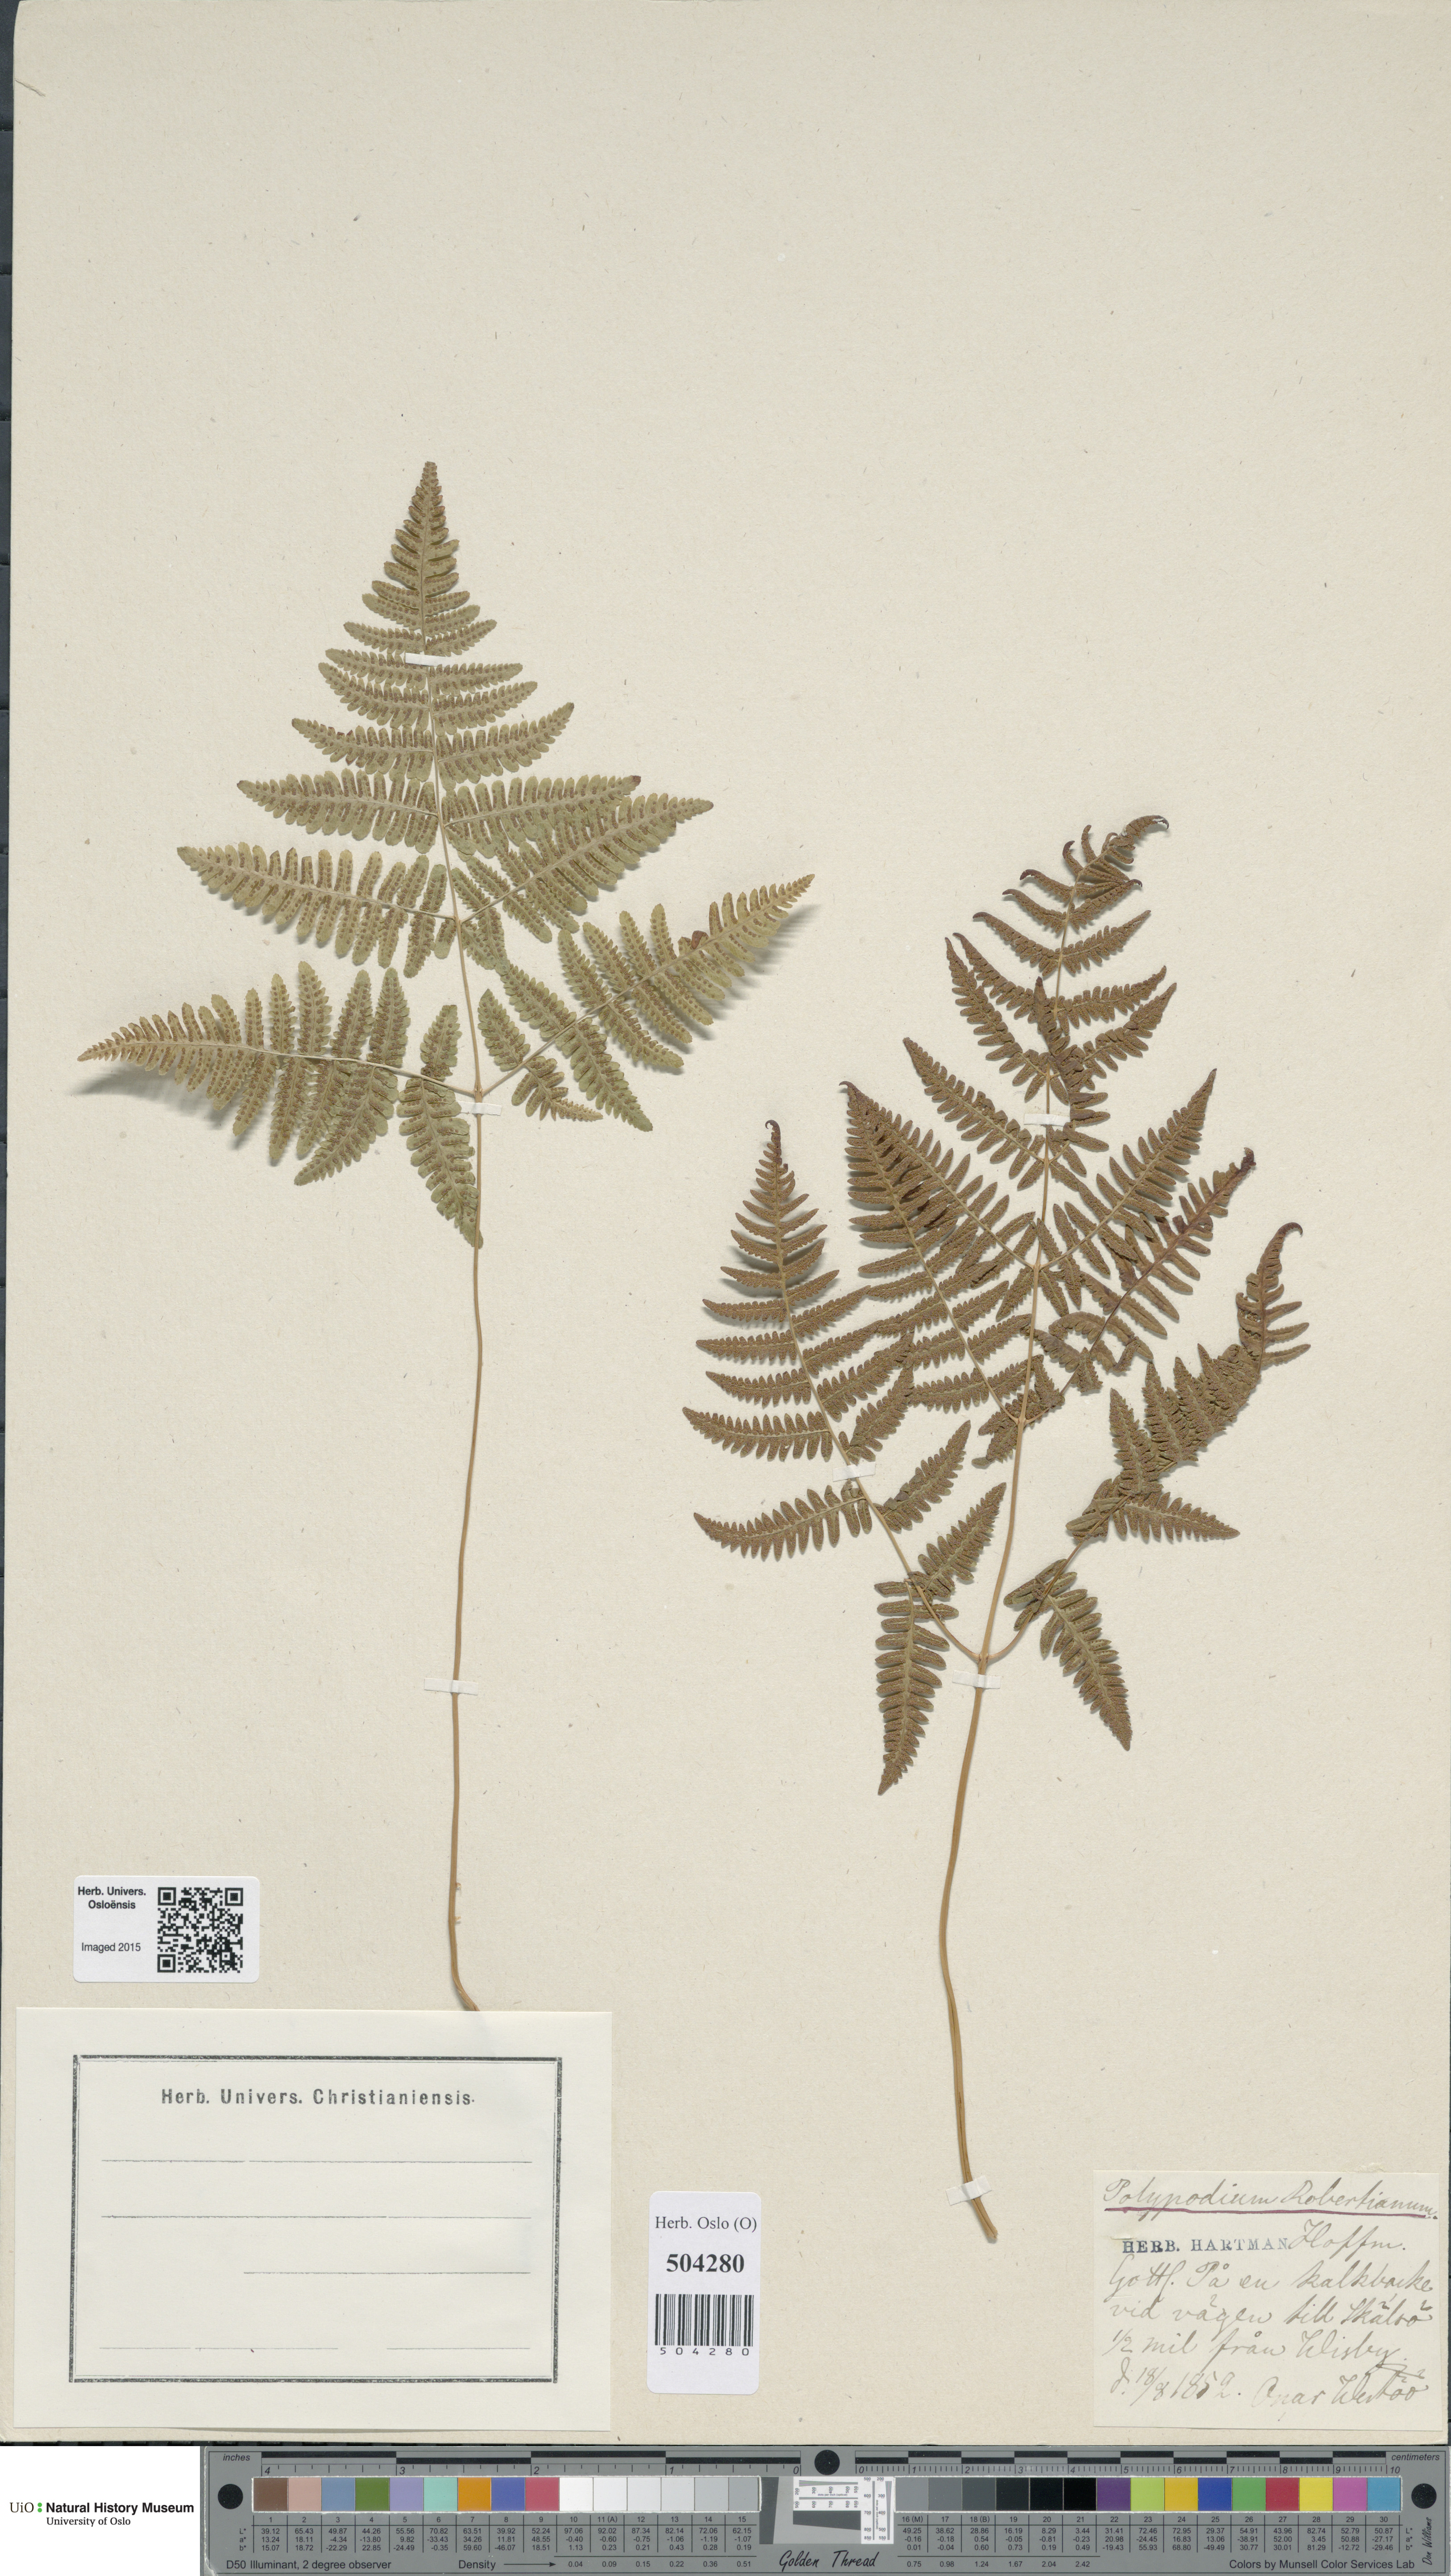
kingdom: Plantae
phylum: Tracheophyta
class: Polypodiopsida
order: Polypodiales
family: Cystopteridaceae
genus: Gymnocarpium
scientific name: Gymnocarpium robertianum
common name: Limestone fern
